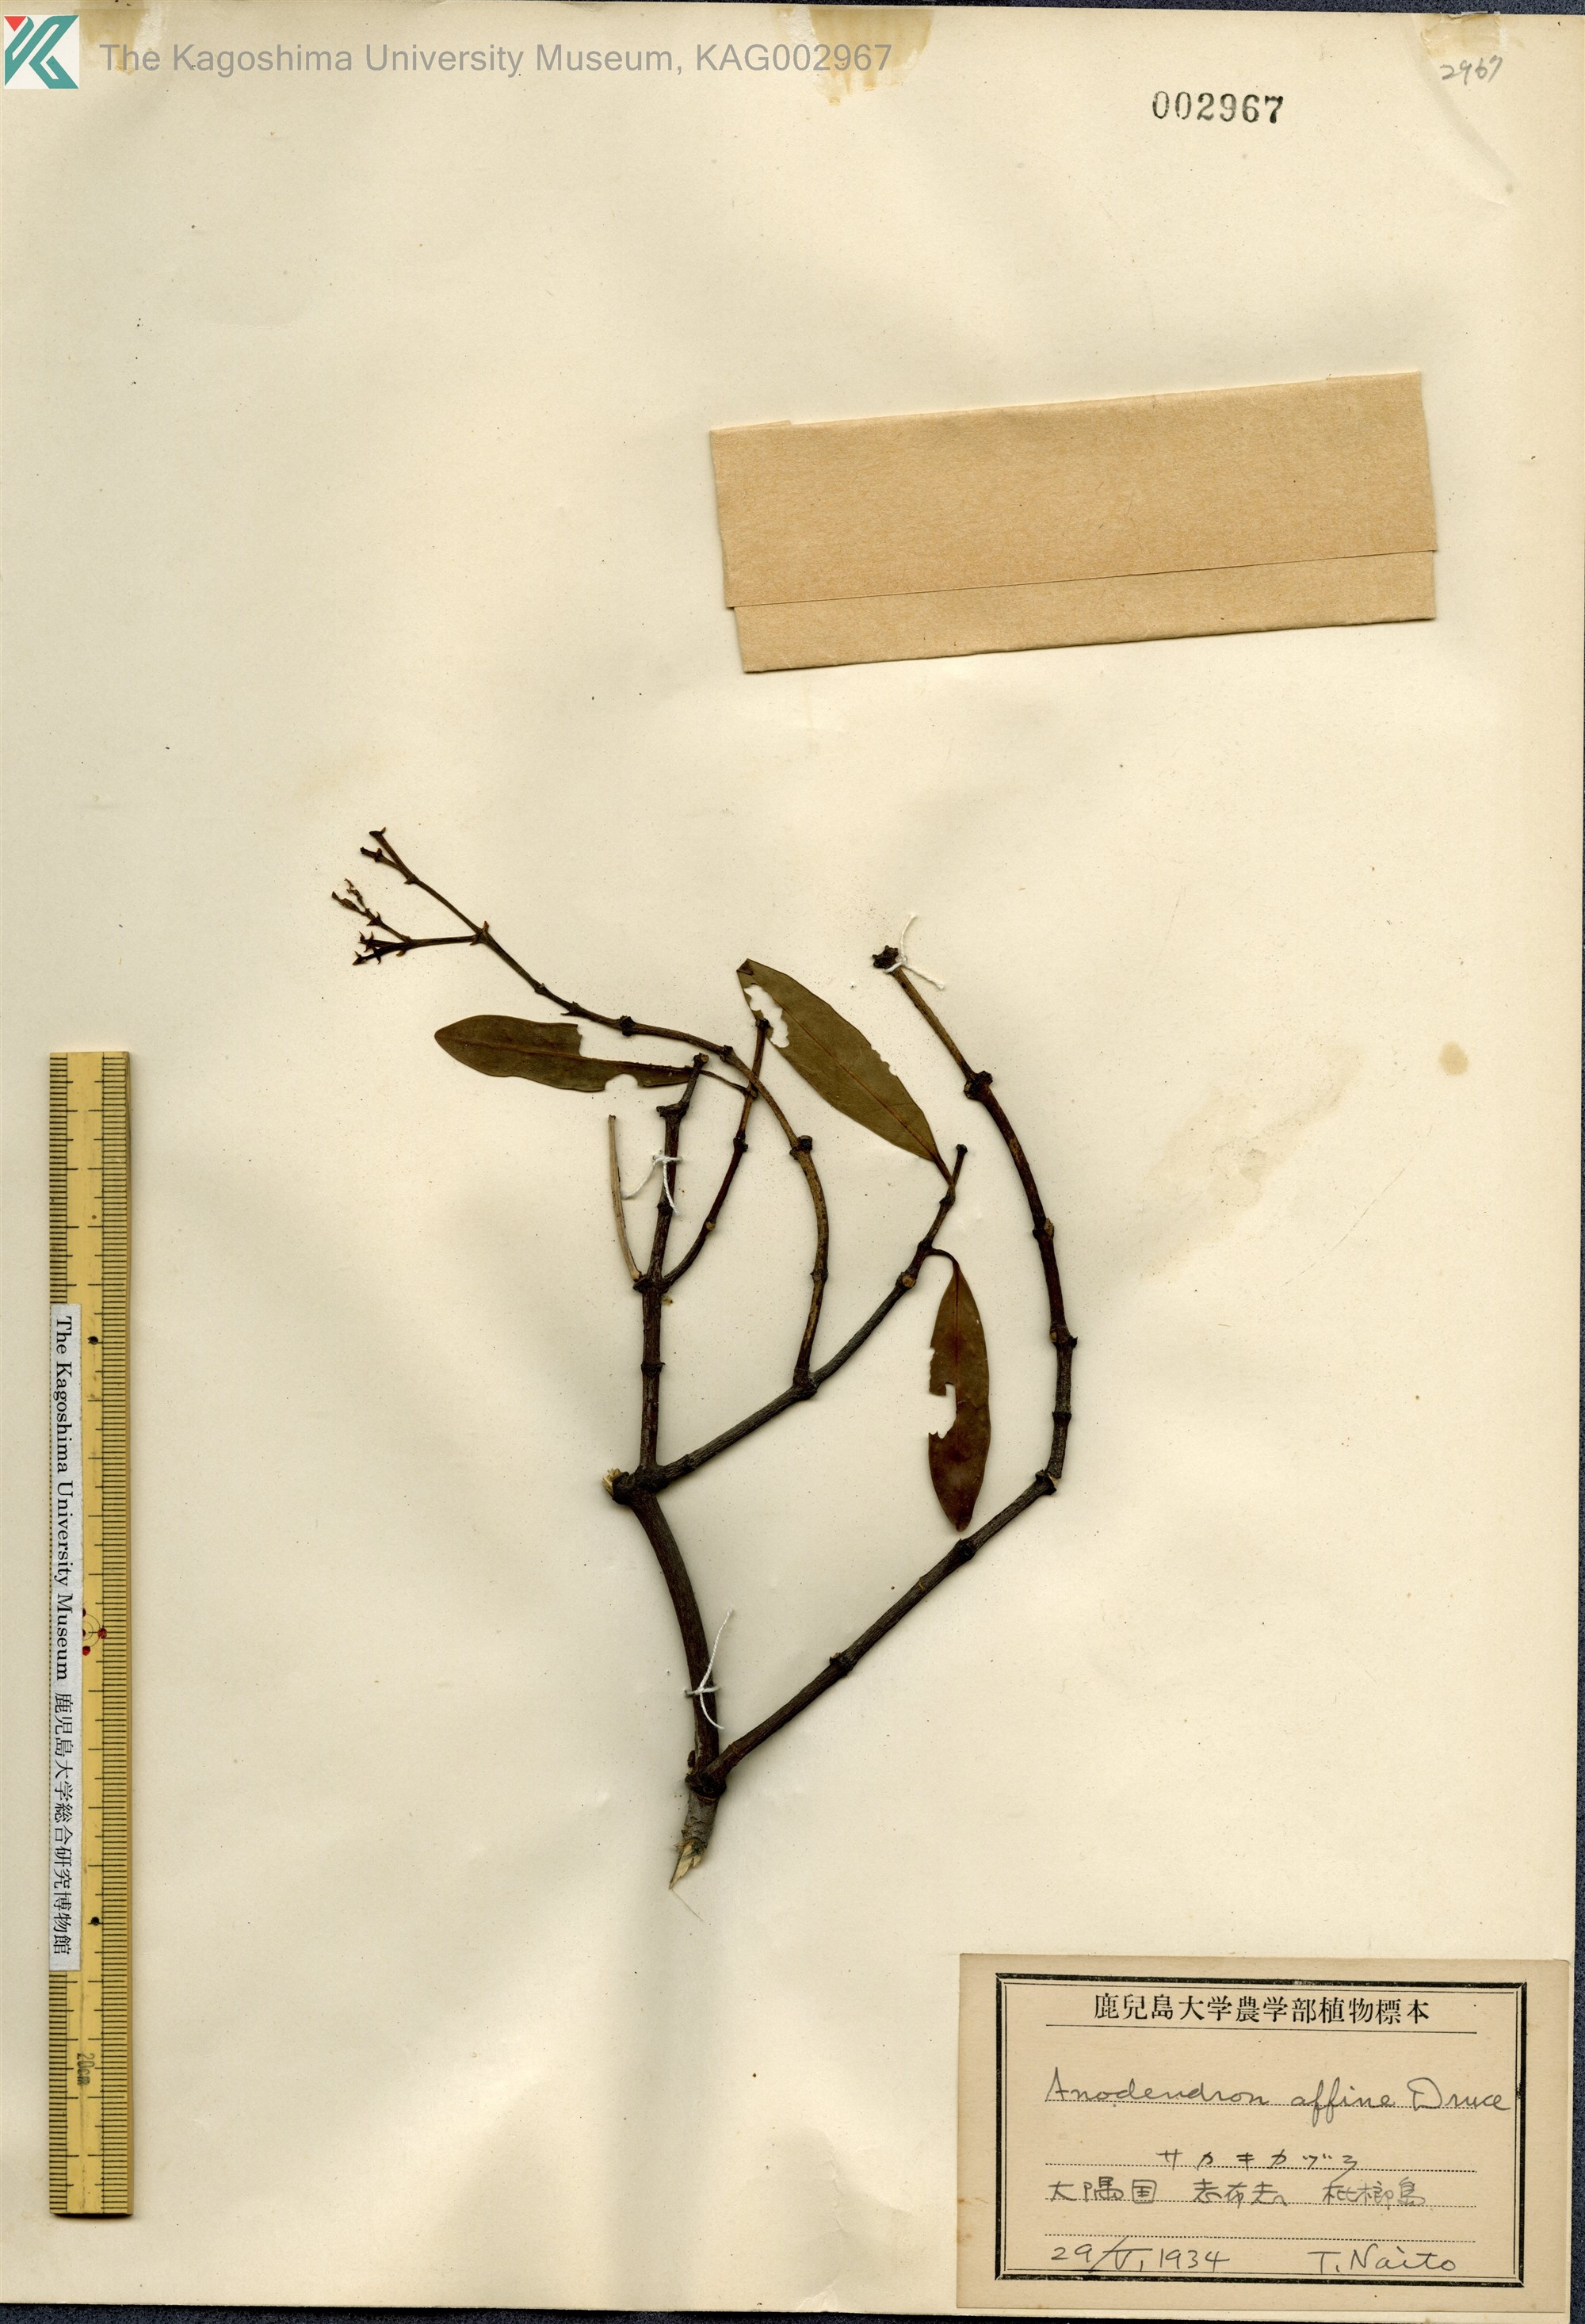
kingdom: Plantae
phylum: Tracheophyta
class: Magnoliopsida
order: Gentianales
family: Apocynaceae
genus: Anodendron
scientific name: Anodendron affine
